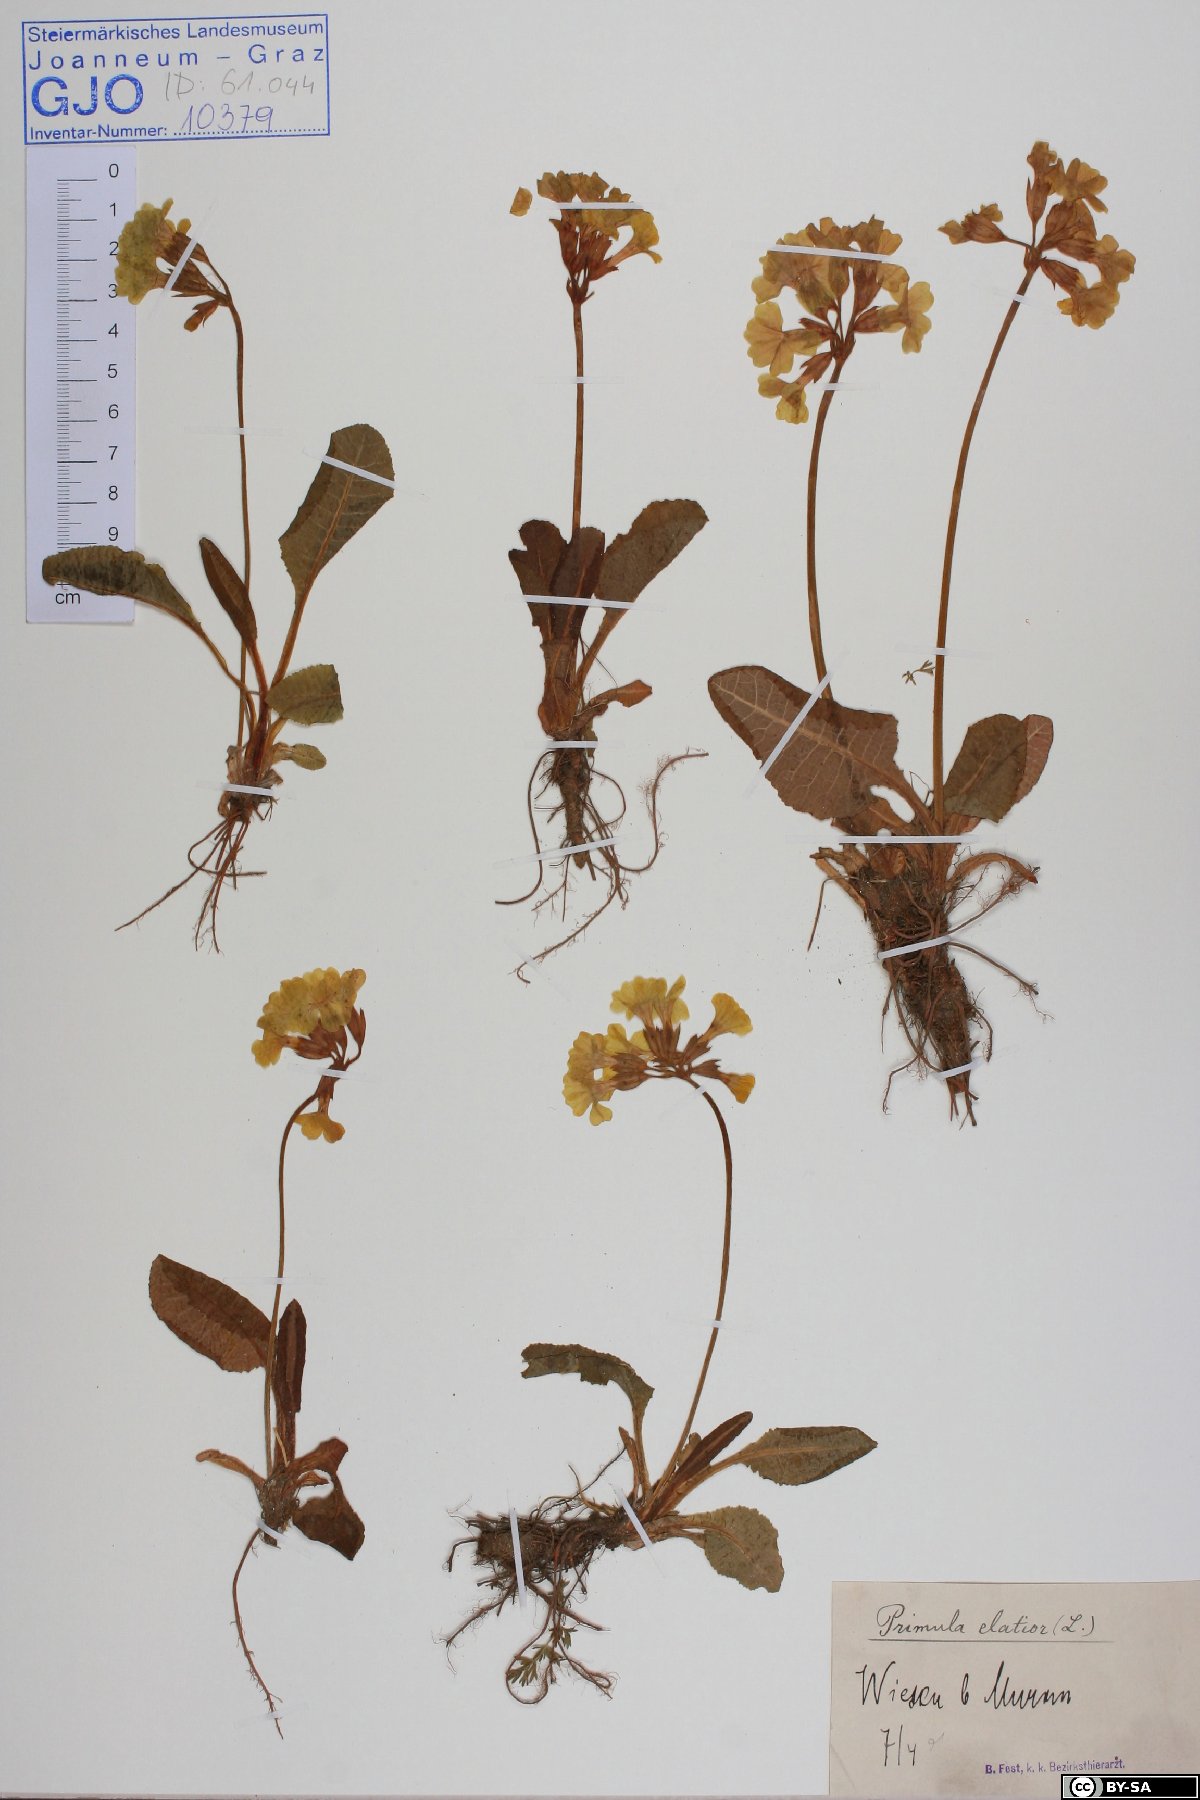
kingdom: Plantae
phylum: Tracheophyta
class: Magnoliopsida
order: Ericales
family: Primulaceae
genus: Primula
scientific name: Primula elatior
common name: Oxlip
